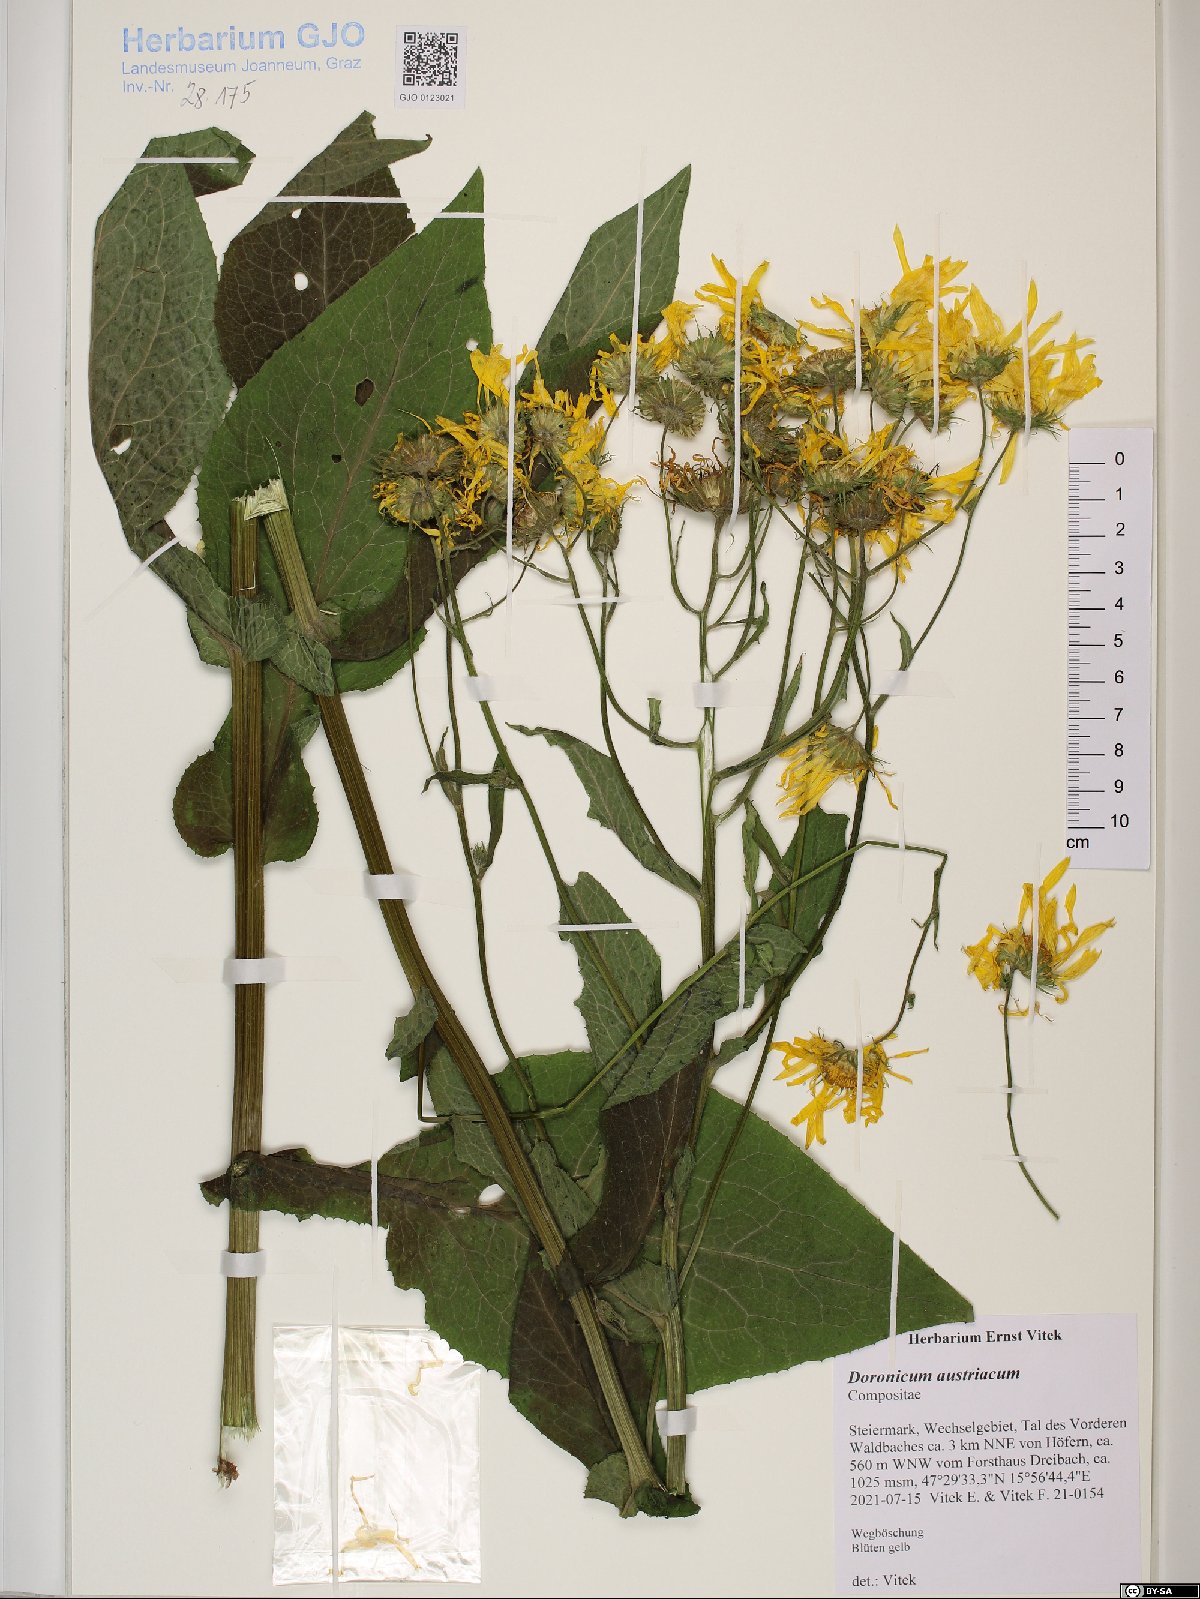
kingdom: Plantae
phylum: Tracheophyta
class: Magnoliopsida
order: Asterales
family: Asteraceae
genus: Doronicum
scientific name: Doronicum austriacum
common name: Austrian leopard's-bane
